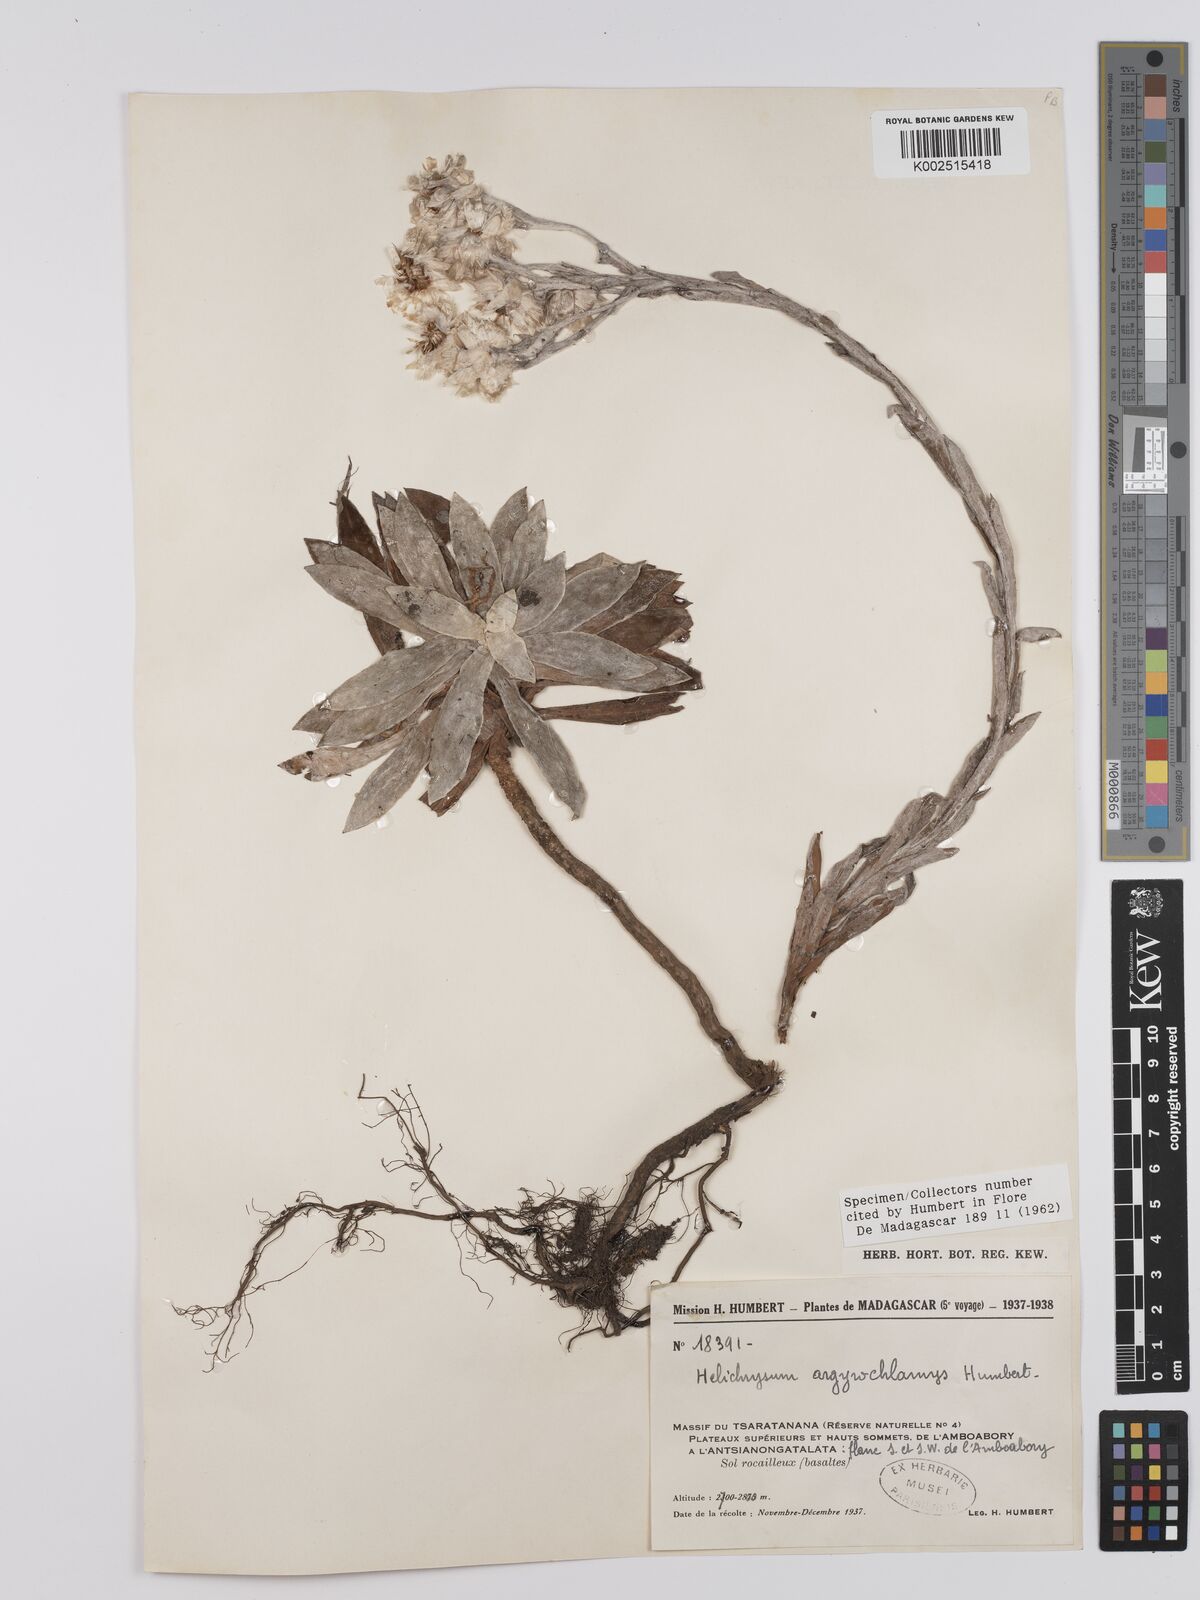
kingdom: Plantae
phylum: Tracheophyta
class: Magnoliopsida
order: Asterales
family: Asteraceae
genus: Helichrysum
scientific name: Helichrysum argyrochlamys
